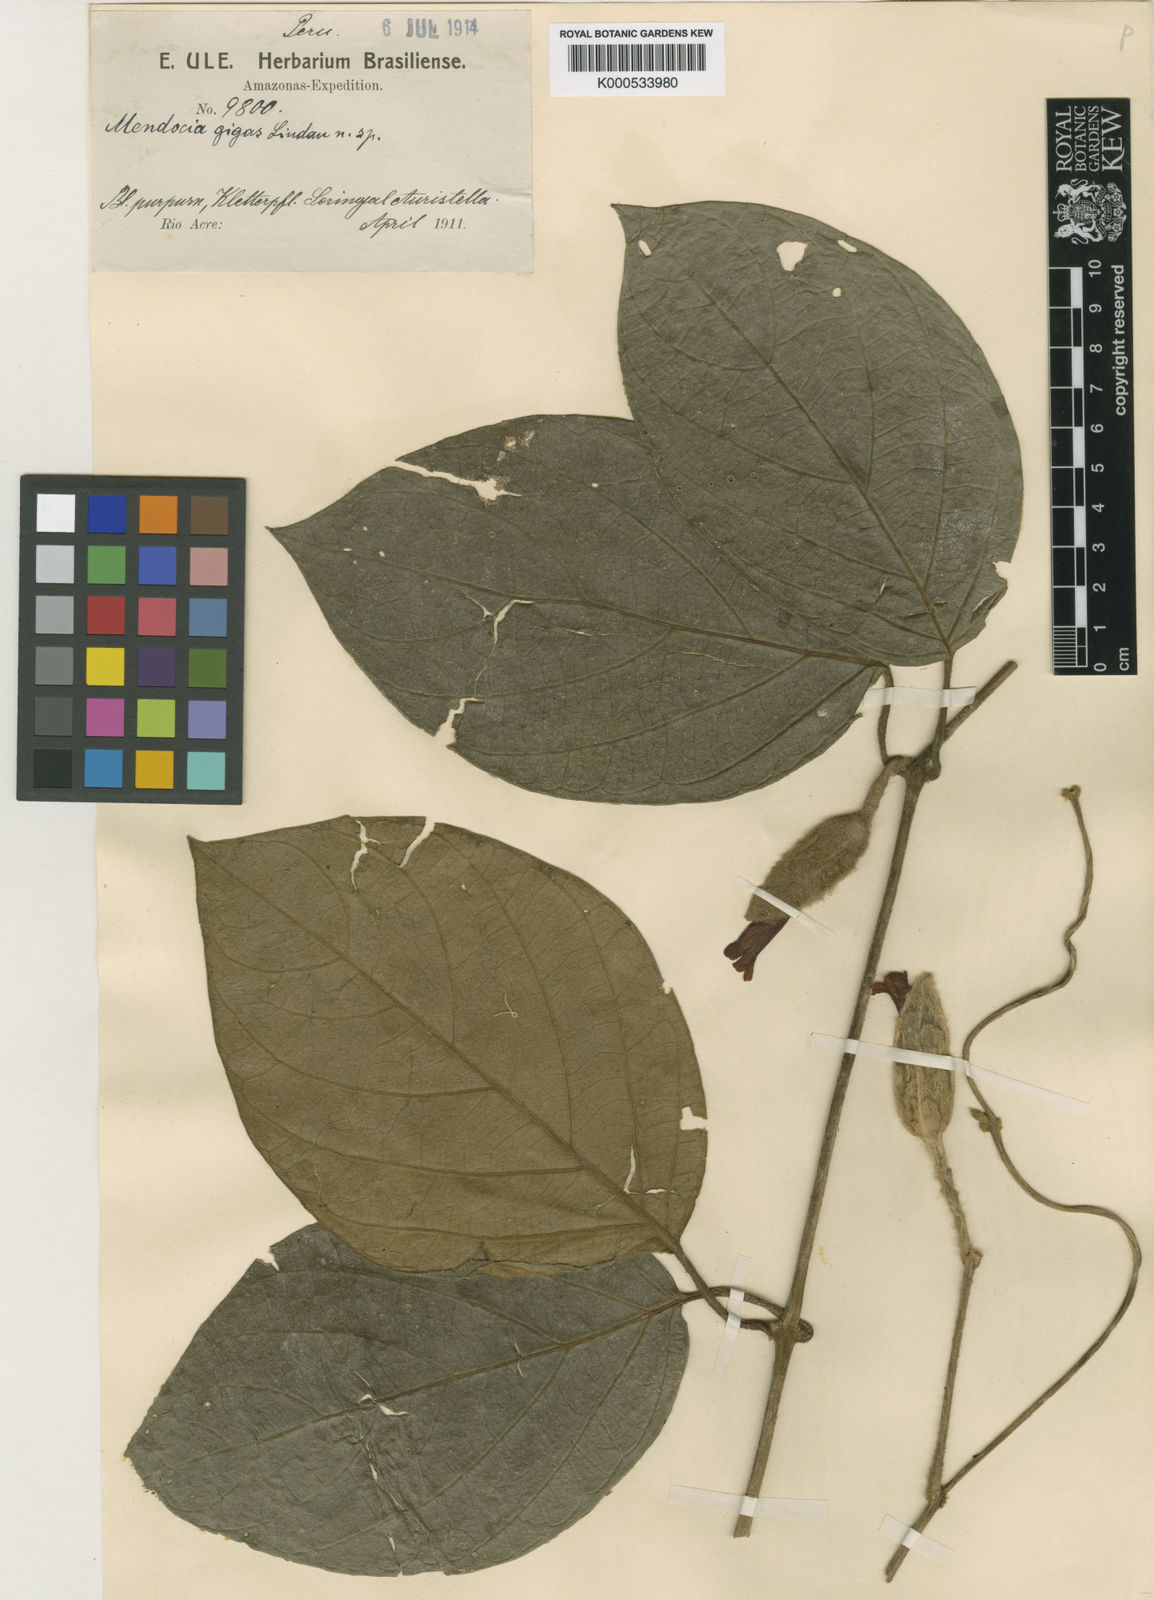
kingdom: Plantae
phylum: Tracheophyta
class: Magnoliopsida
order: Lamiales
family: Acanthaceae
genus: Mendoncia
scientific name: Mendoncia gigas
